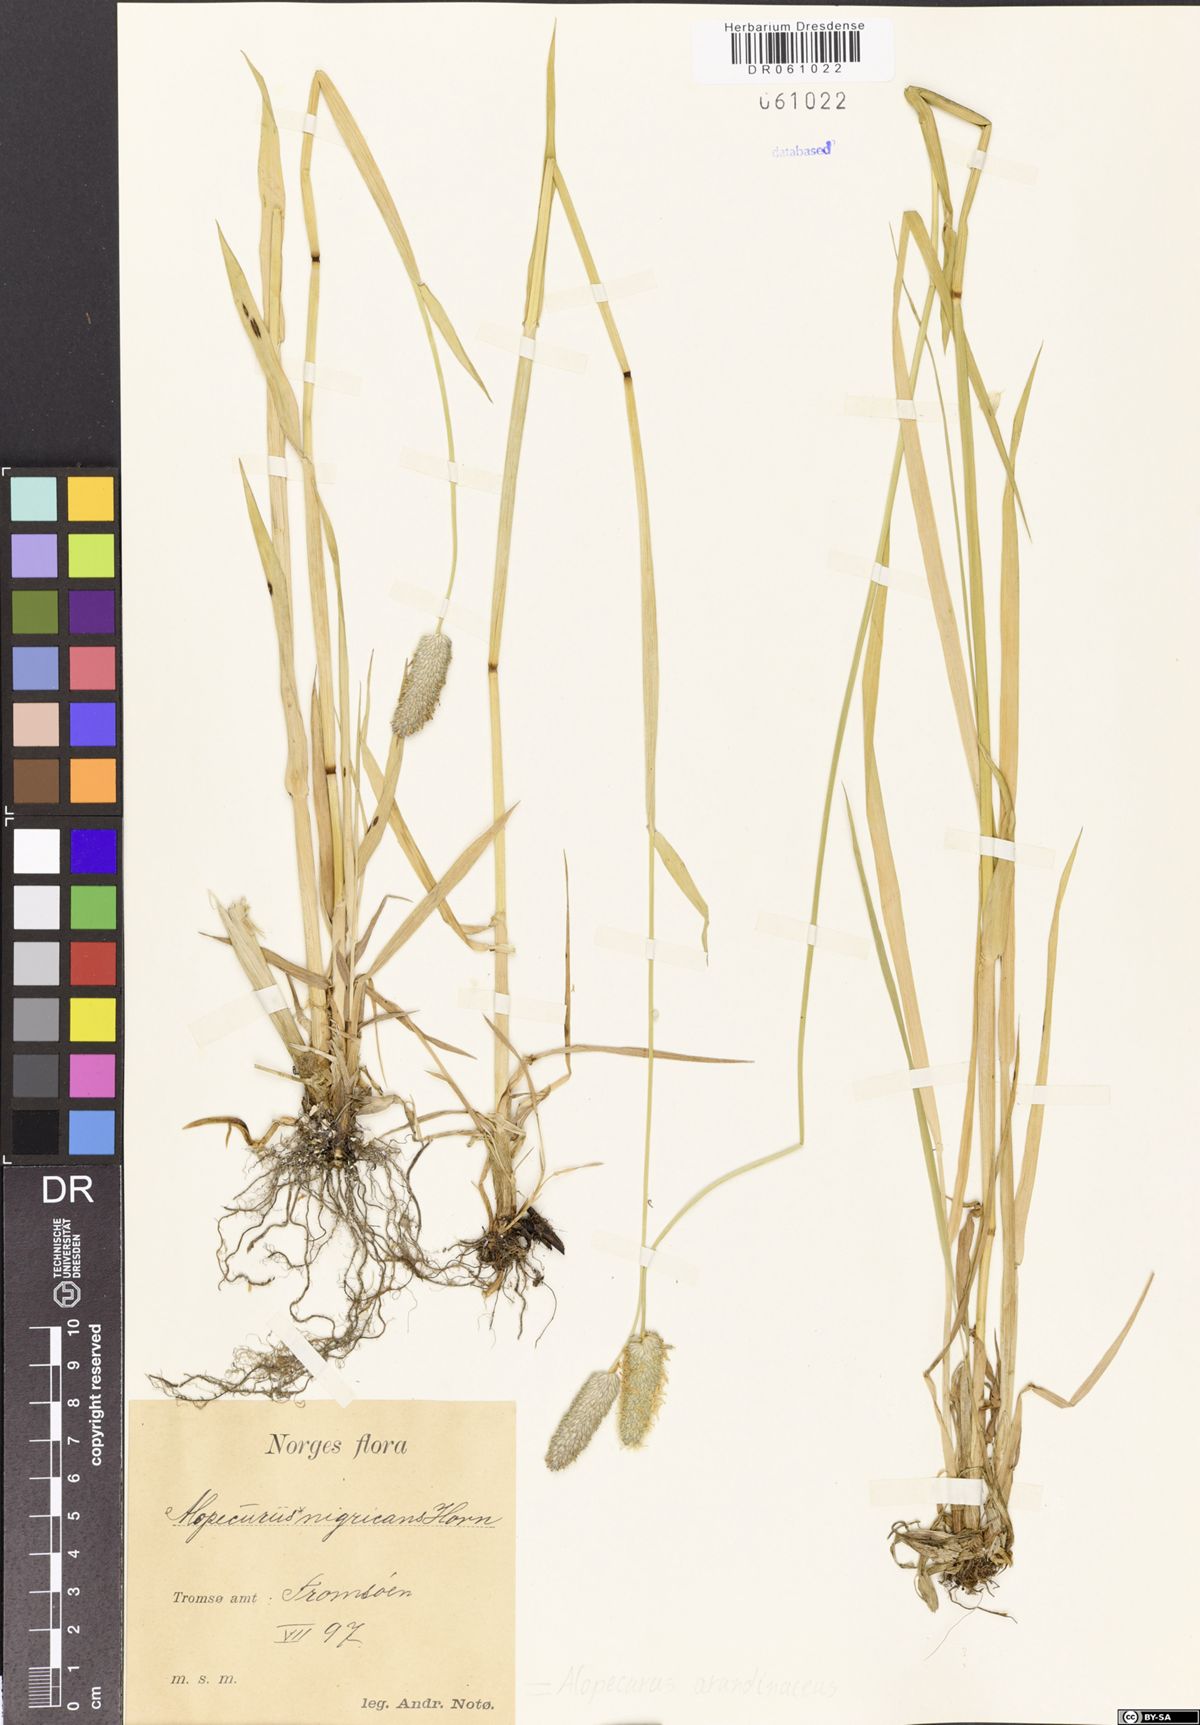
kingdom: Plantae
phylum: Tracheophyta
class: Liliopsida
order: Poales
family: Poaceae
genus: Alopecurus
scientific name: Alopecurus arundinaceus
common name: Creeping meadow foxtail
